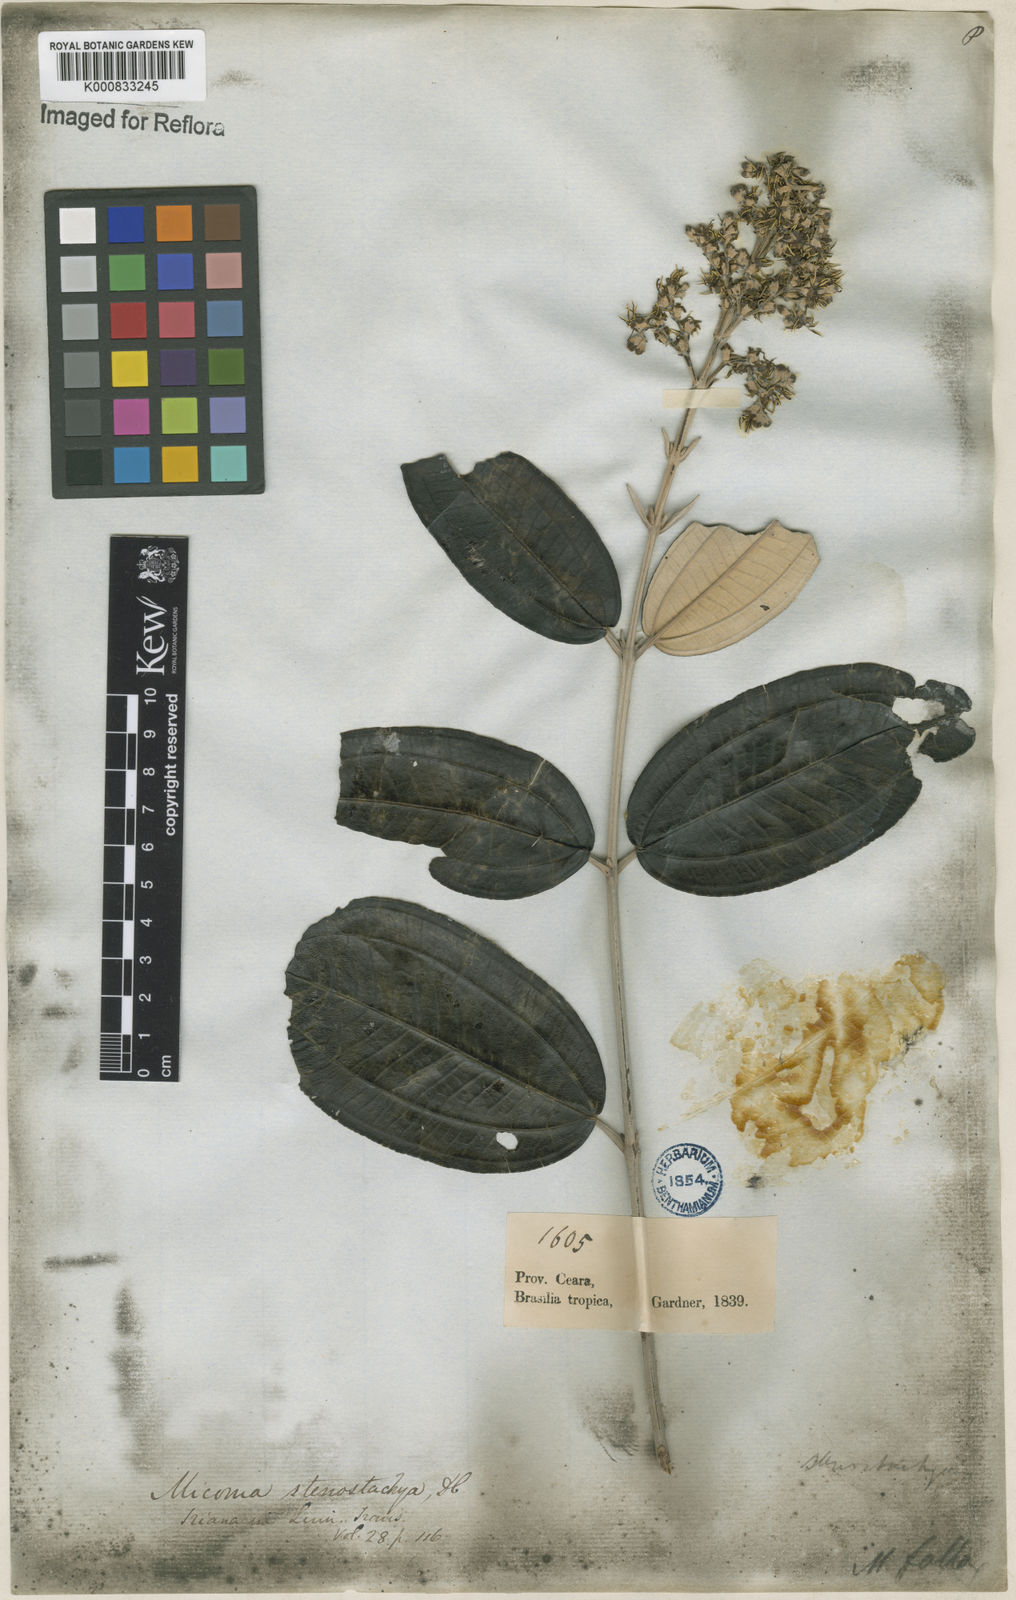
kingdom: Plantae
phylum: Tracheophyta
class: Magnoliopsida
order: Myrtales
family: Melastomataceae
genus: Miconia
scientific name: Miconia stenostachya
